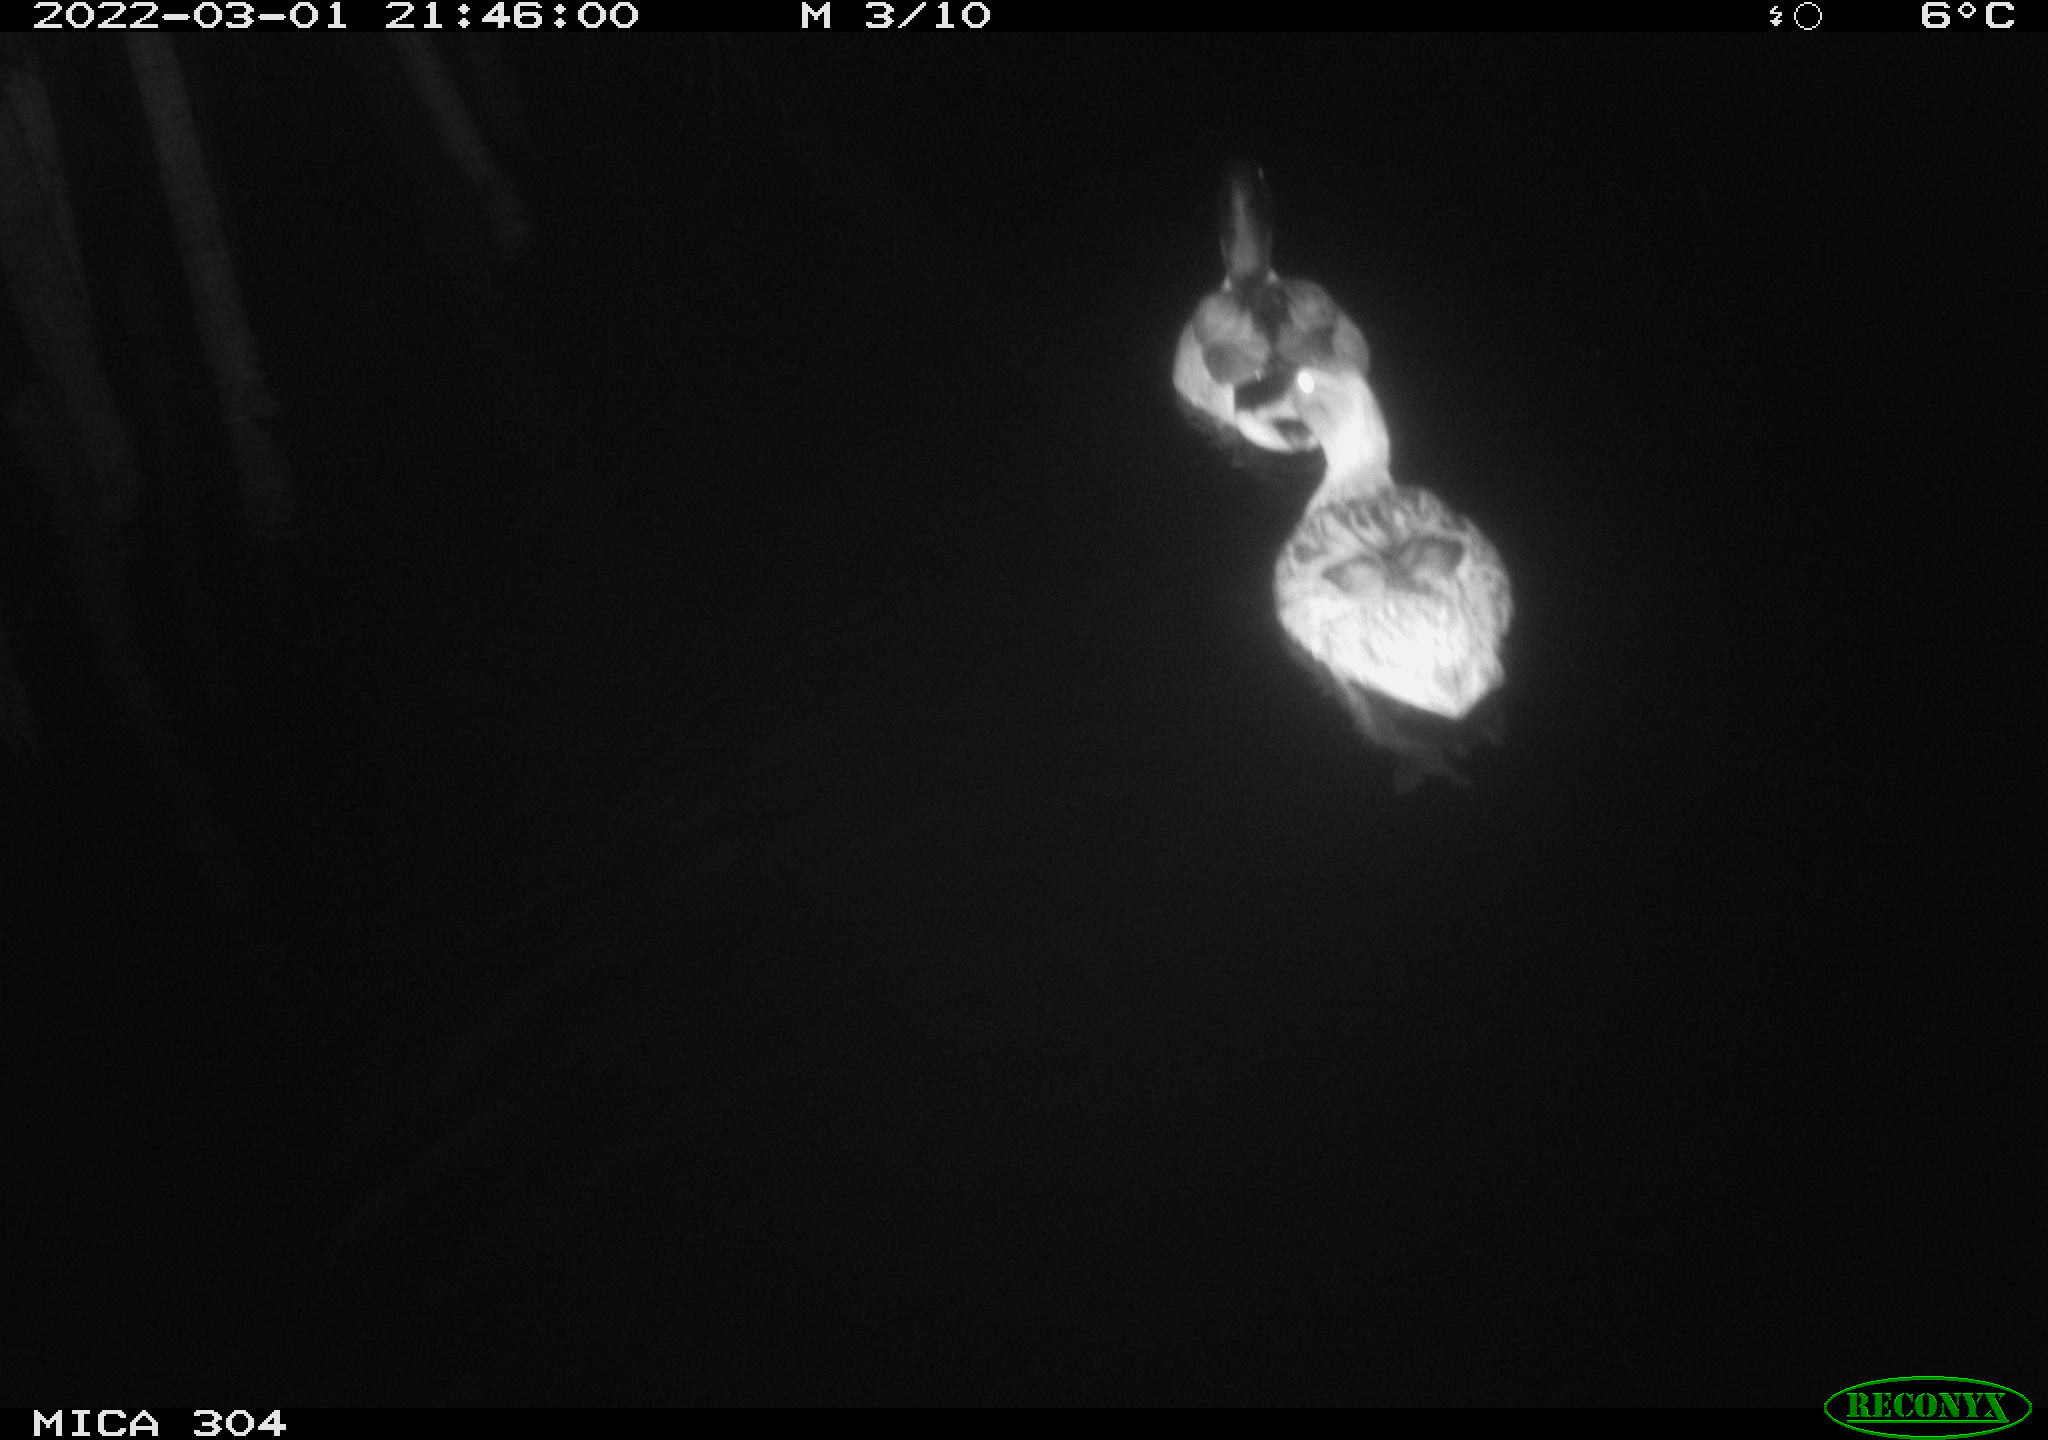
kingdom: Animalia
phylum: Chordata
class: Aves
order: Anseriformes
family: Anatidae
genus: Anas
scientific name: Anas platyrhynchos
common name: Mallard
